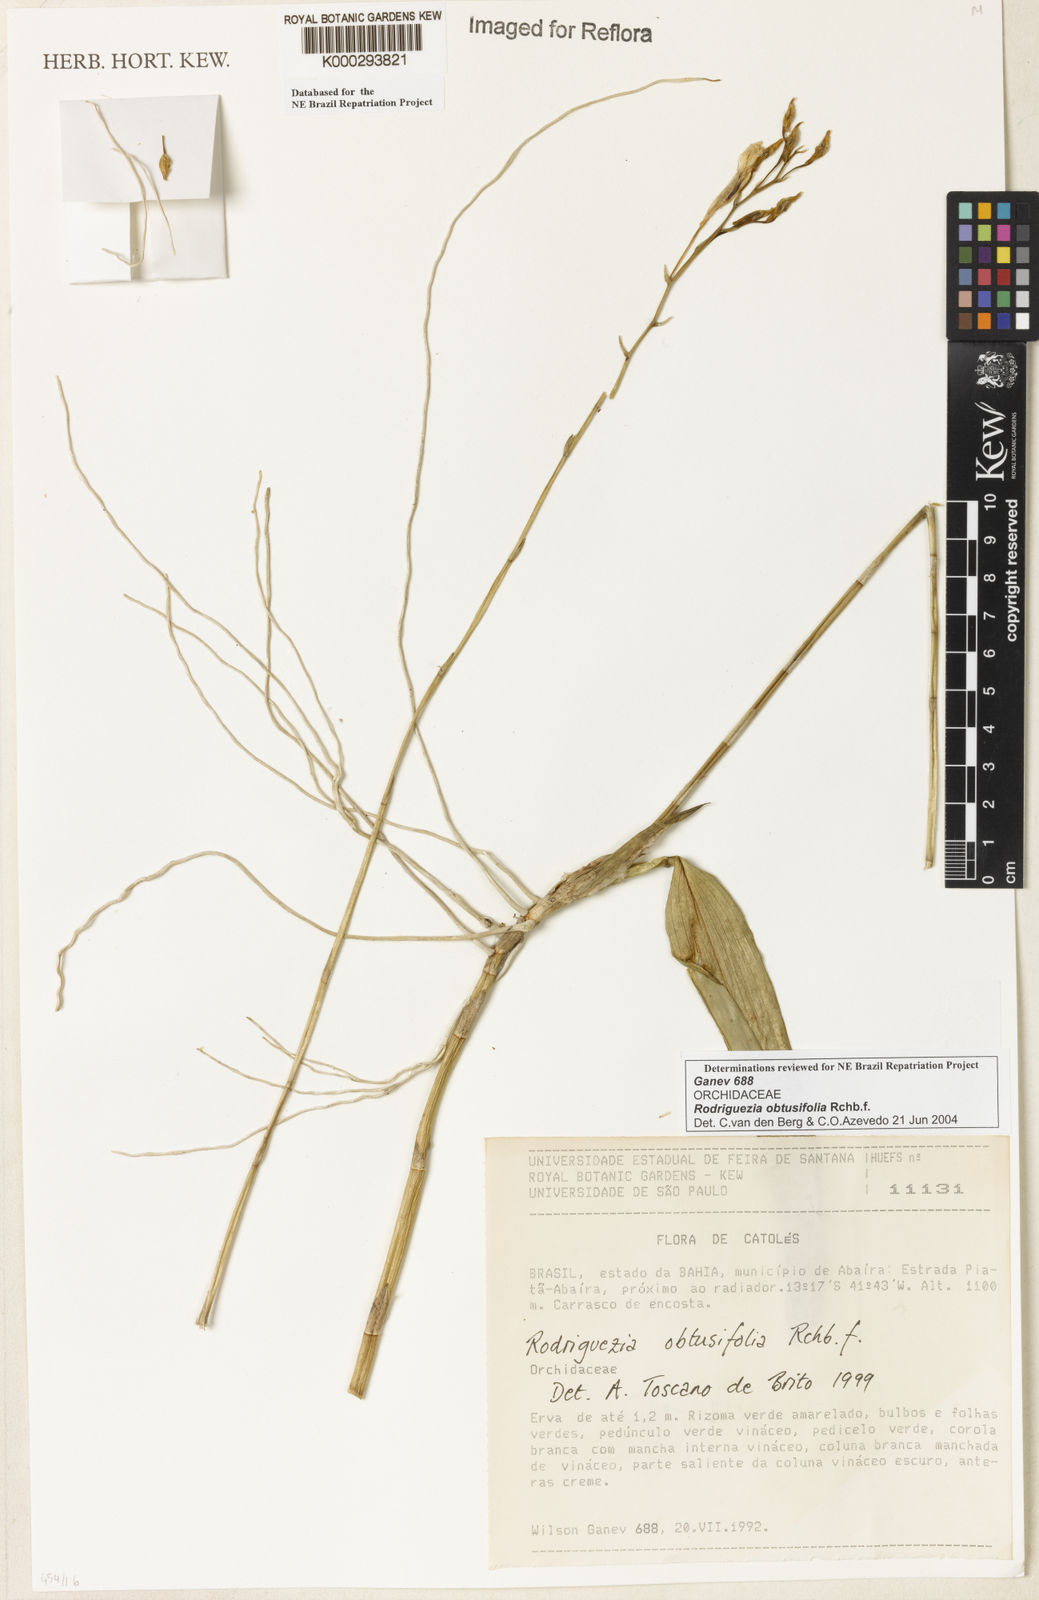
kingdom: Plantae
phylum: Tracheophyta
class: Liliopsida
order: Asparagales
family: Orchidaceae
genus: Rodriguezia
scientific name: Rodriguezia obtusifolia
